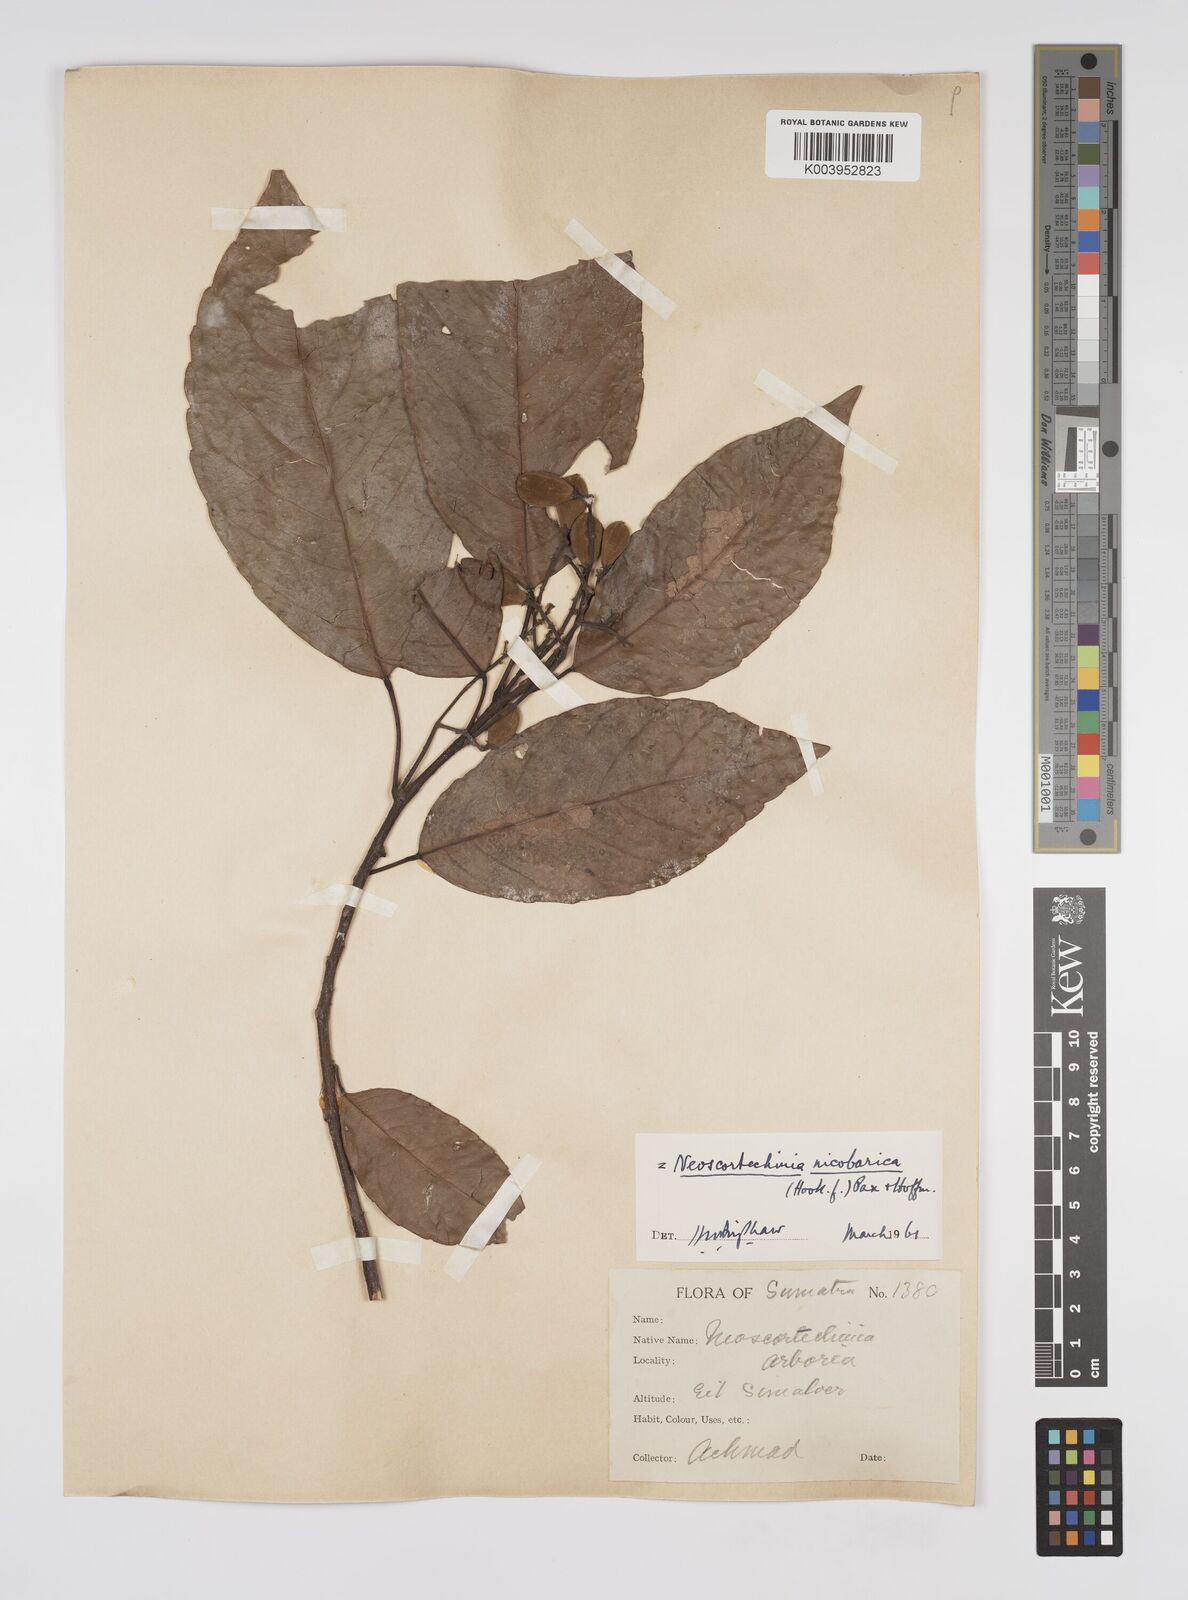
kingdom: Plantae
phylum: Tracheophyta
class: Magnoliopsida
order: Malpighiales
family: Euphorbiaceae
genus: Neoscortechinia
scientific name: Neoscortechinia nicobarica
